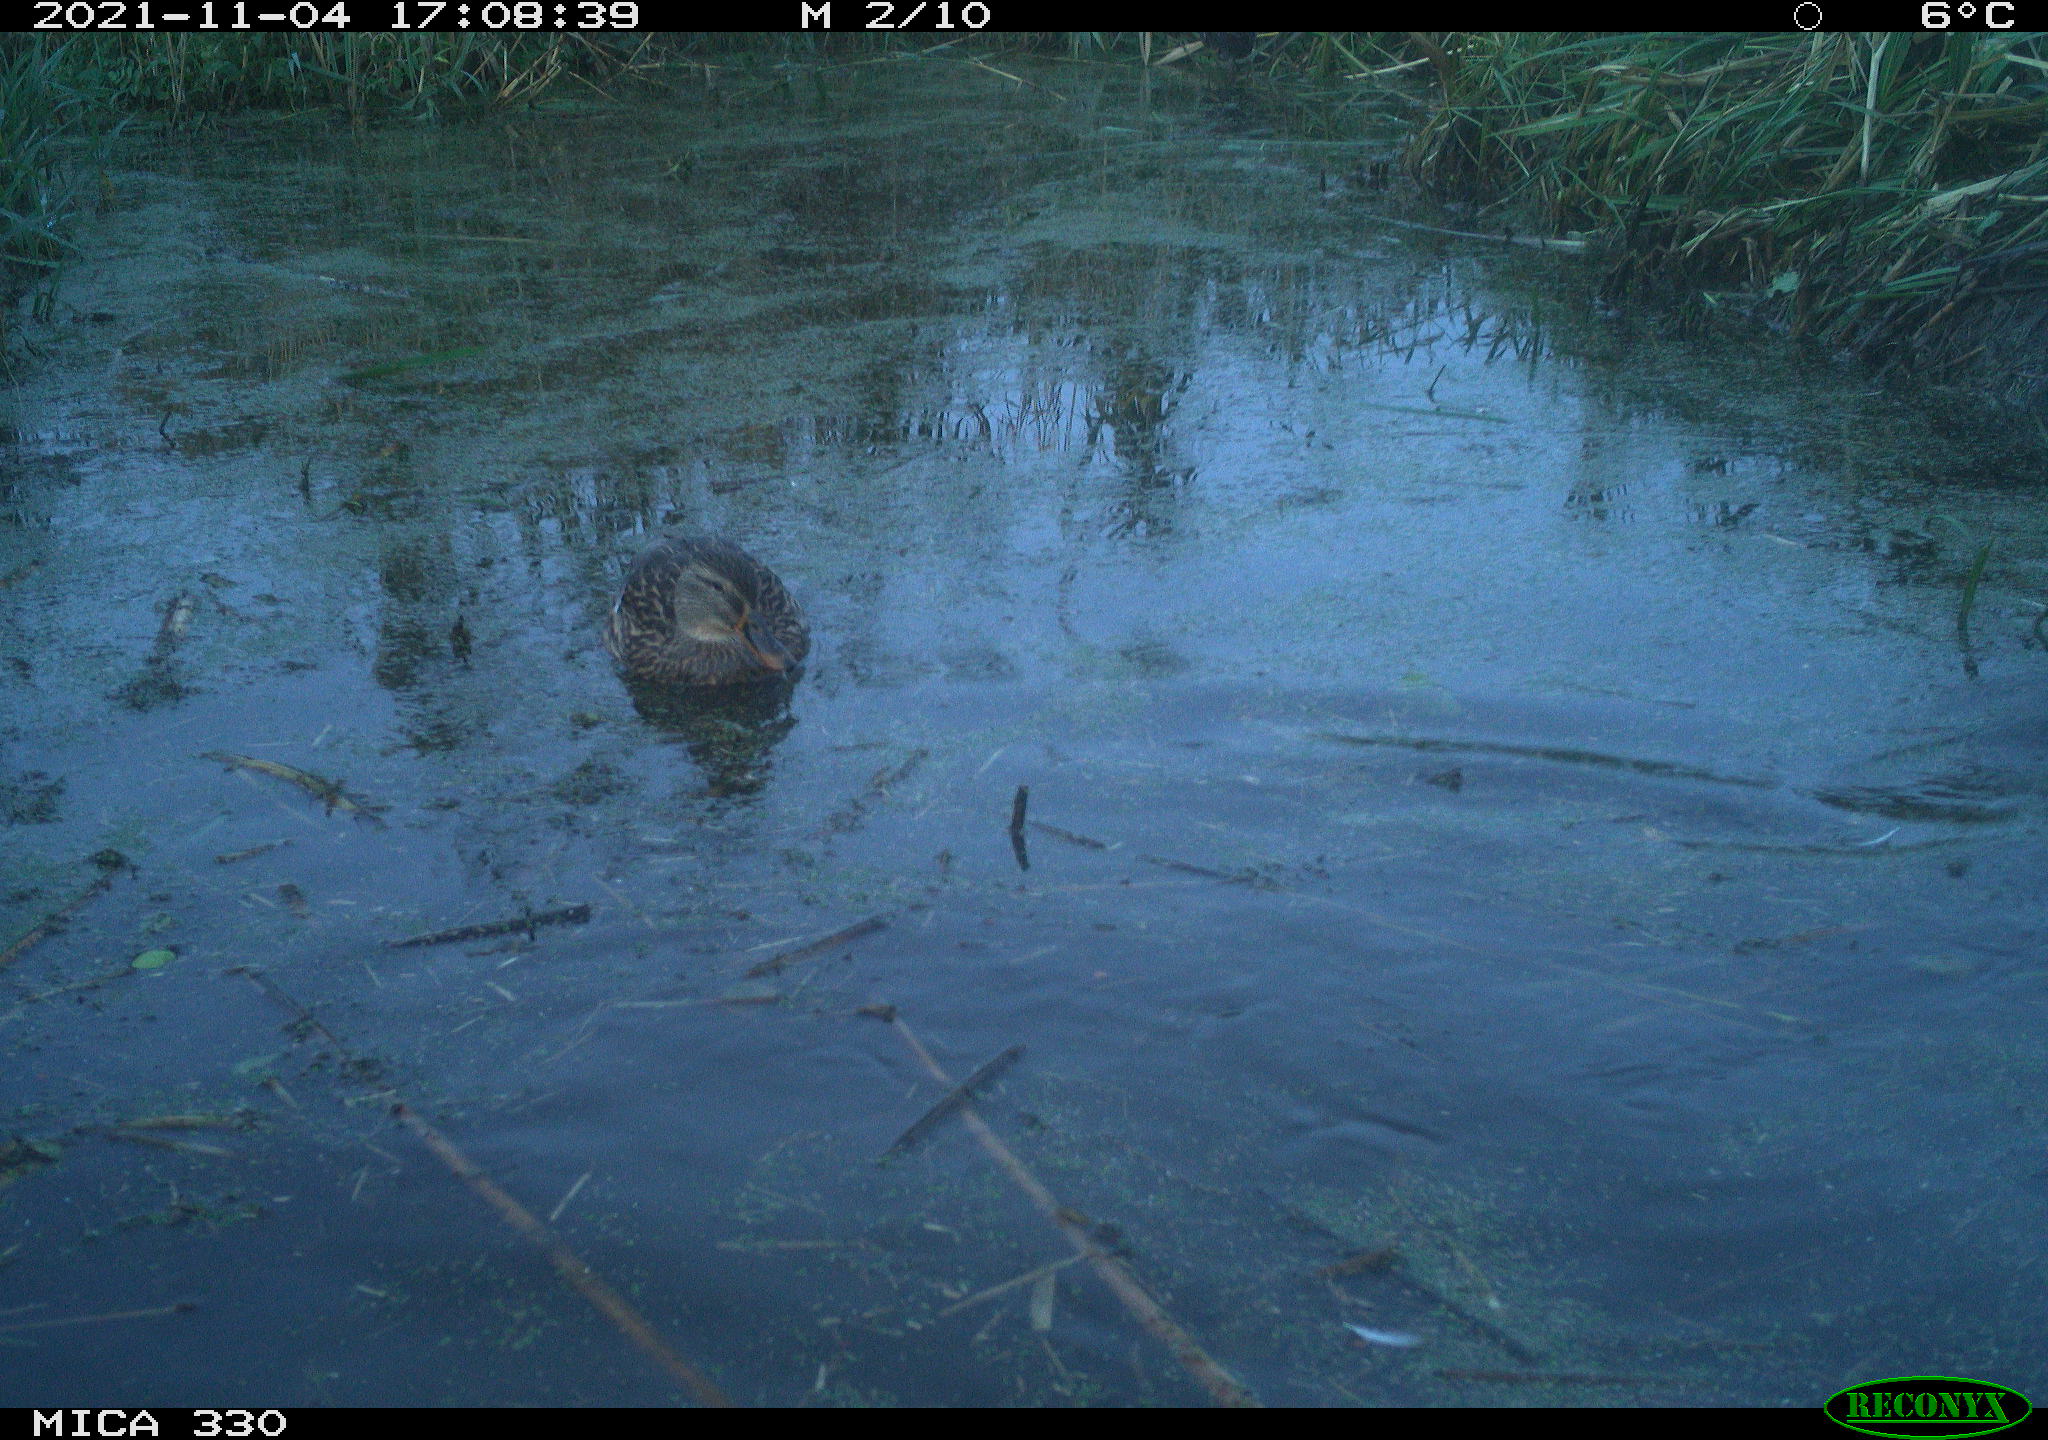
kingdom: Animalia
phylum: Chordata
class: Aves
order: Anseriformes
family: Anatidae
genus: Anas
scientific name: Anas platyrhynchos
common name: Mallard
